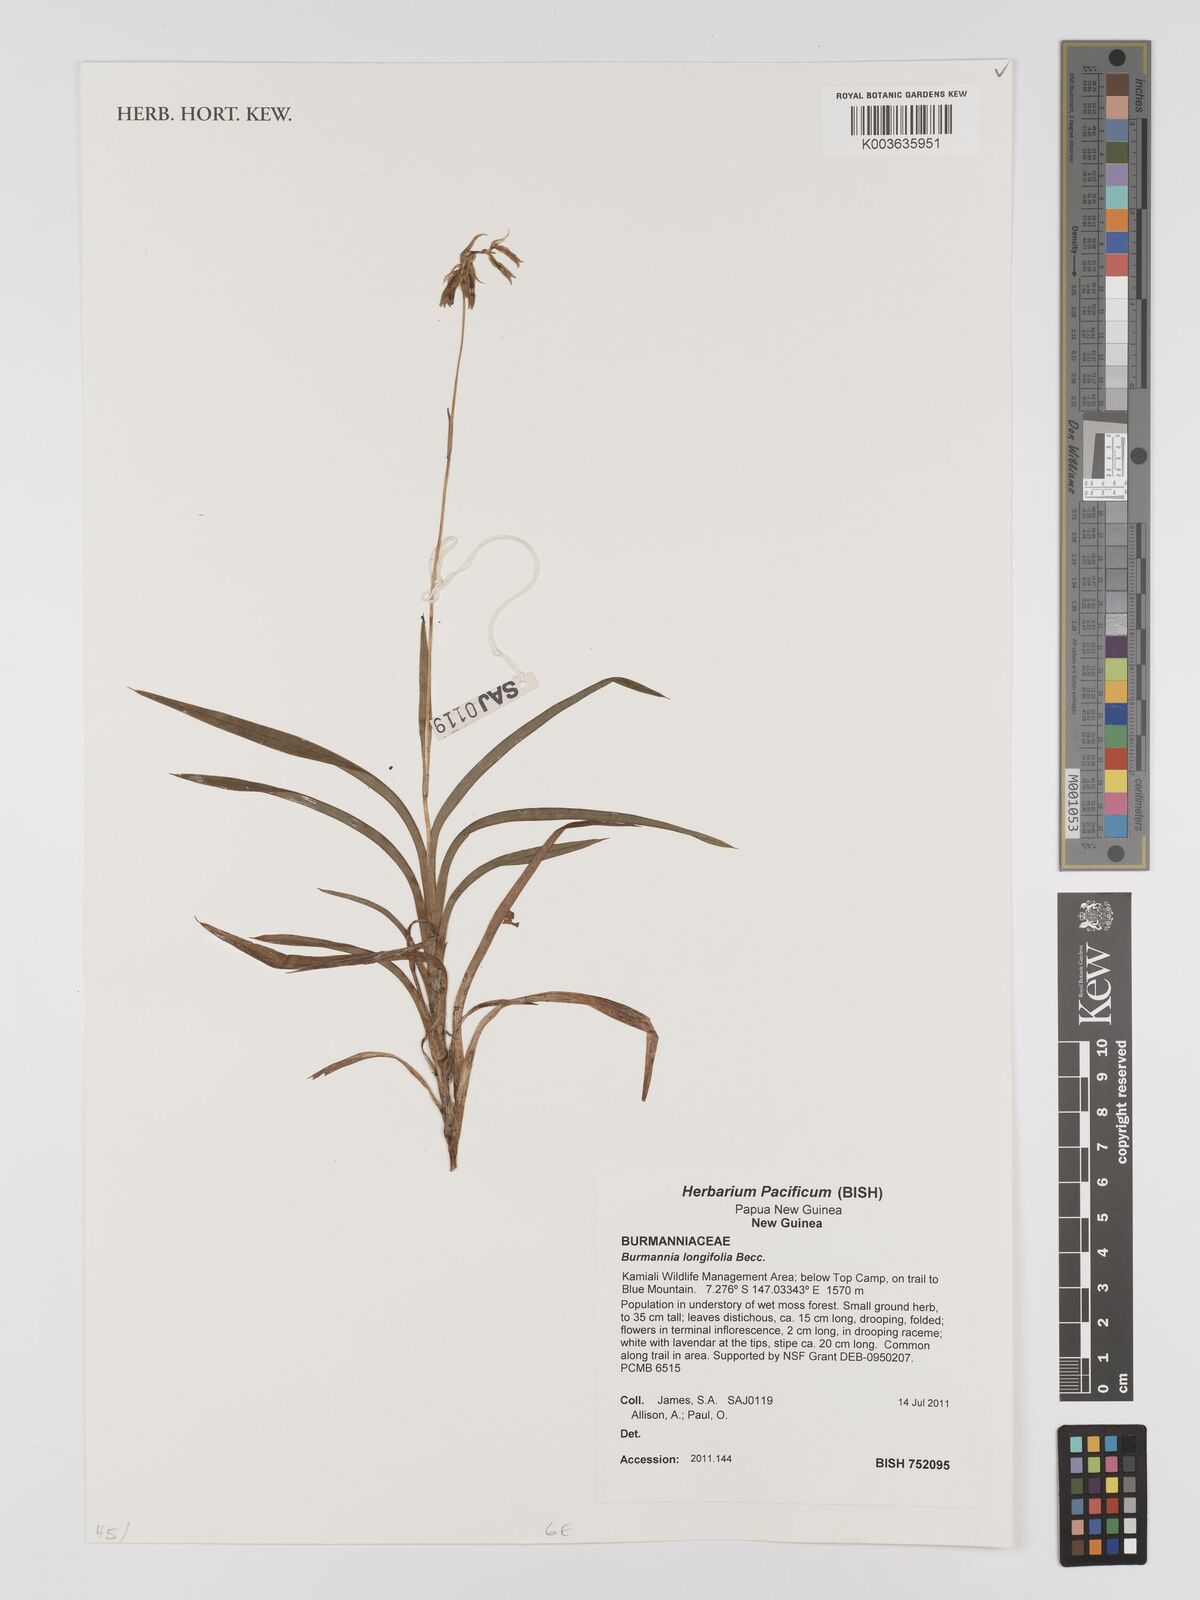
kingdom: Plantae
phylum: Tracheophyta
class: Liliopsida
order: Dioscoreales
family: Burmanniaceae
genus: Burmannia
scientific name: Burmannia longifolia
